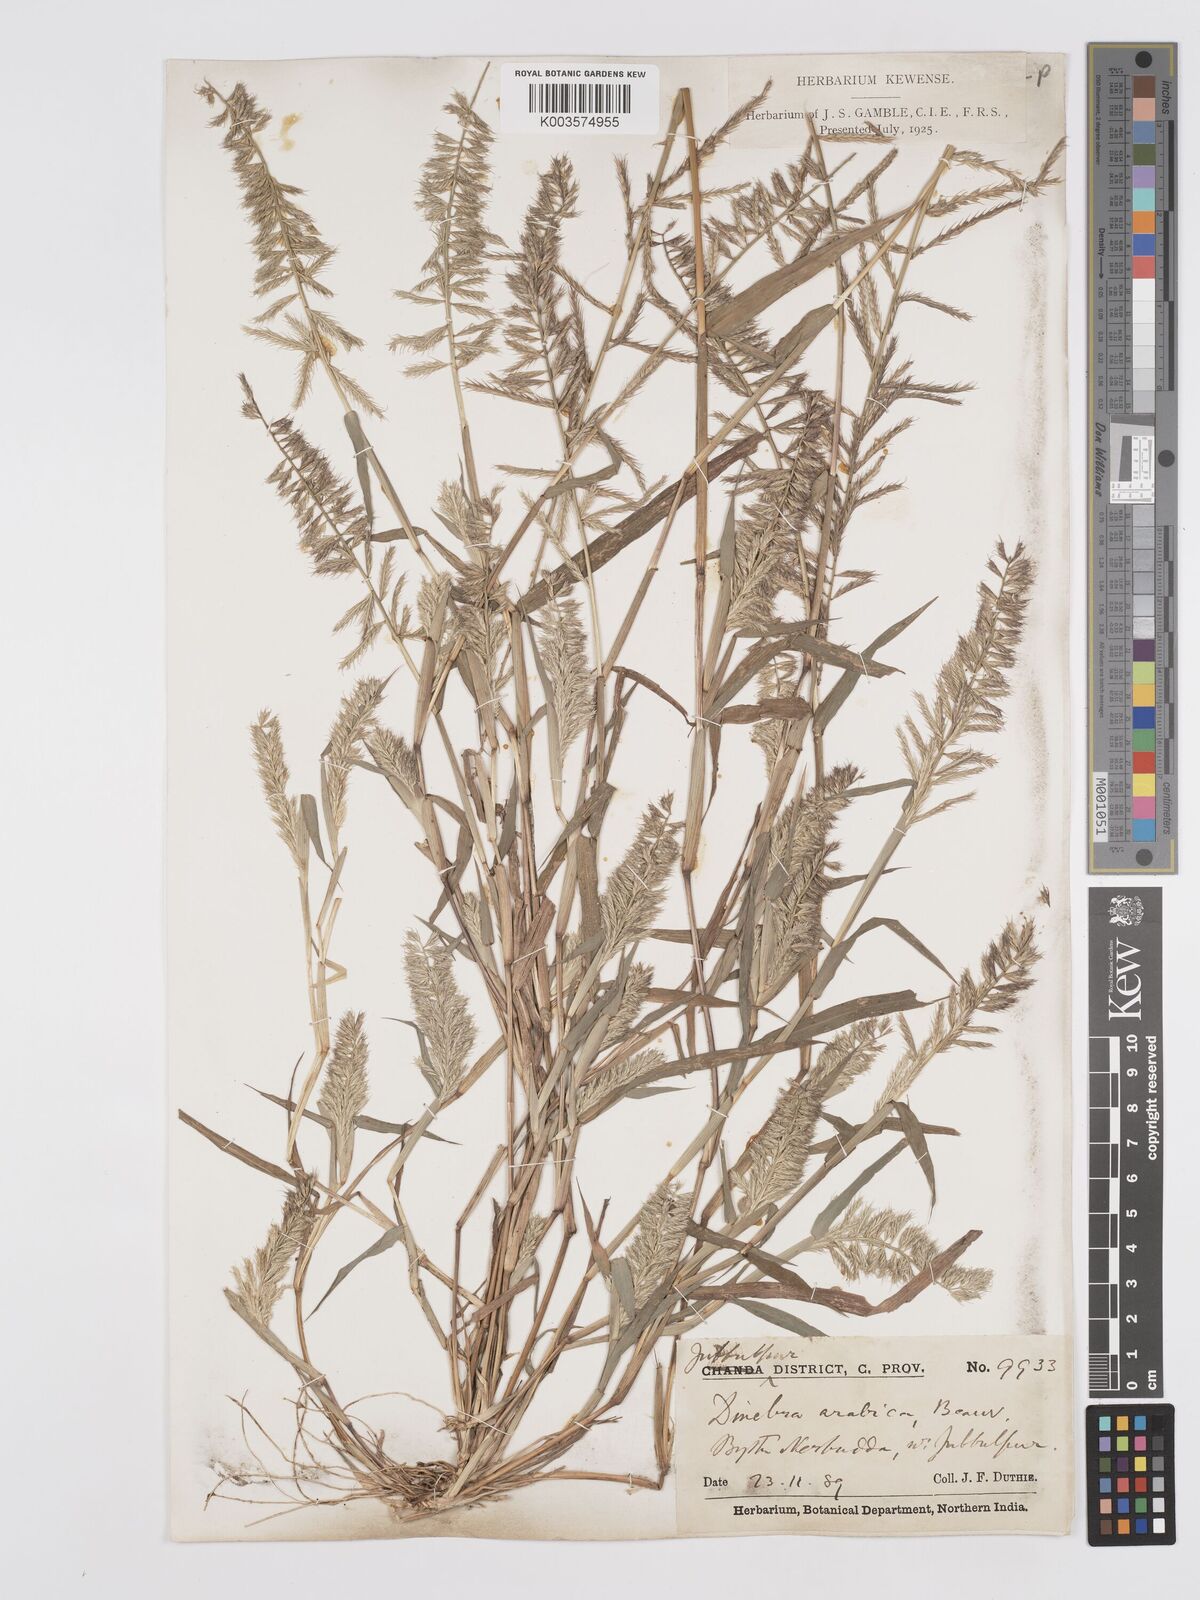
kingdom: Plantae
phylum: Tracheophyta
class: Liliopsida
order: Poales
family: Poaceae
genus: Dinebra
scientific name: Dinebra retroflexa
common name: Viper grass
